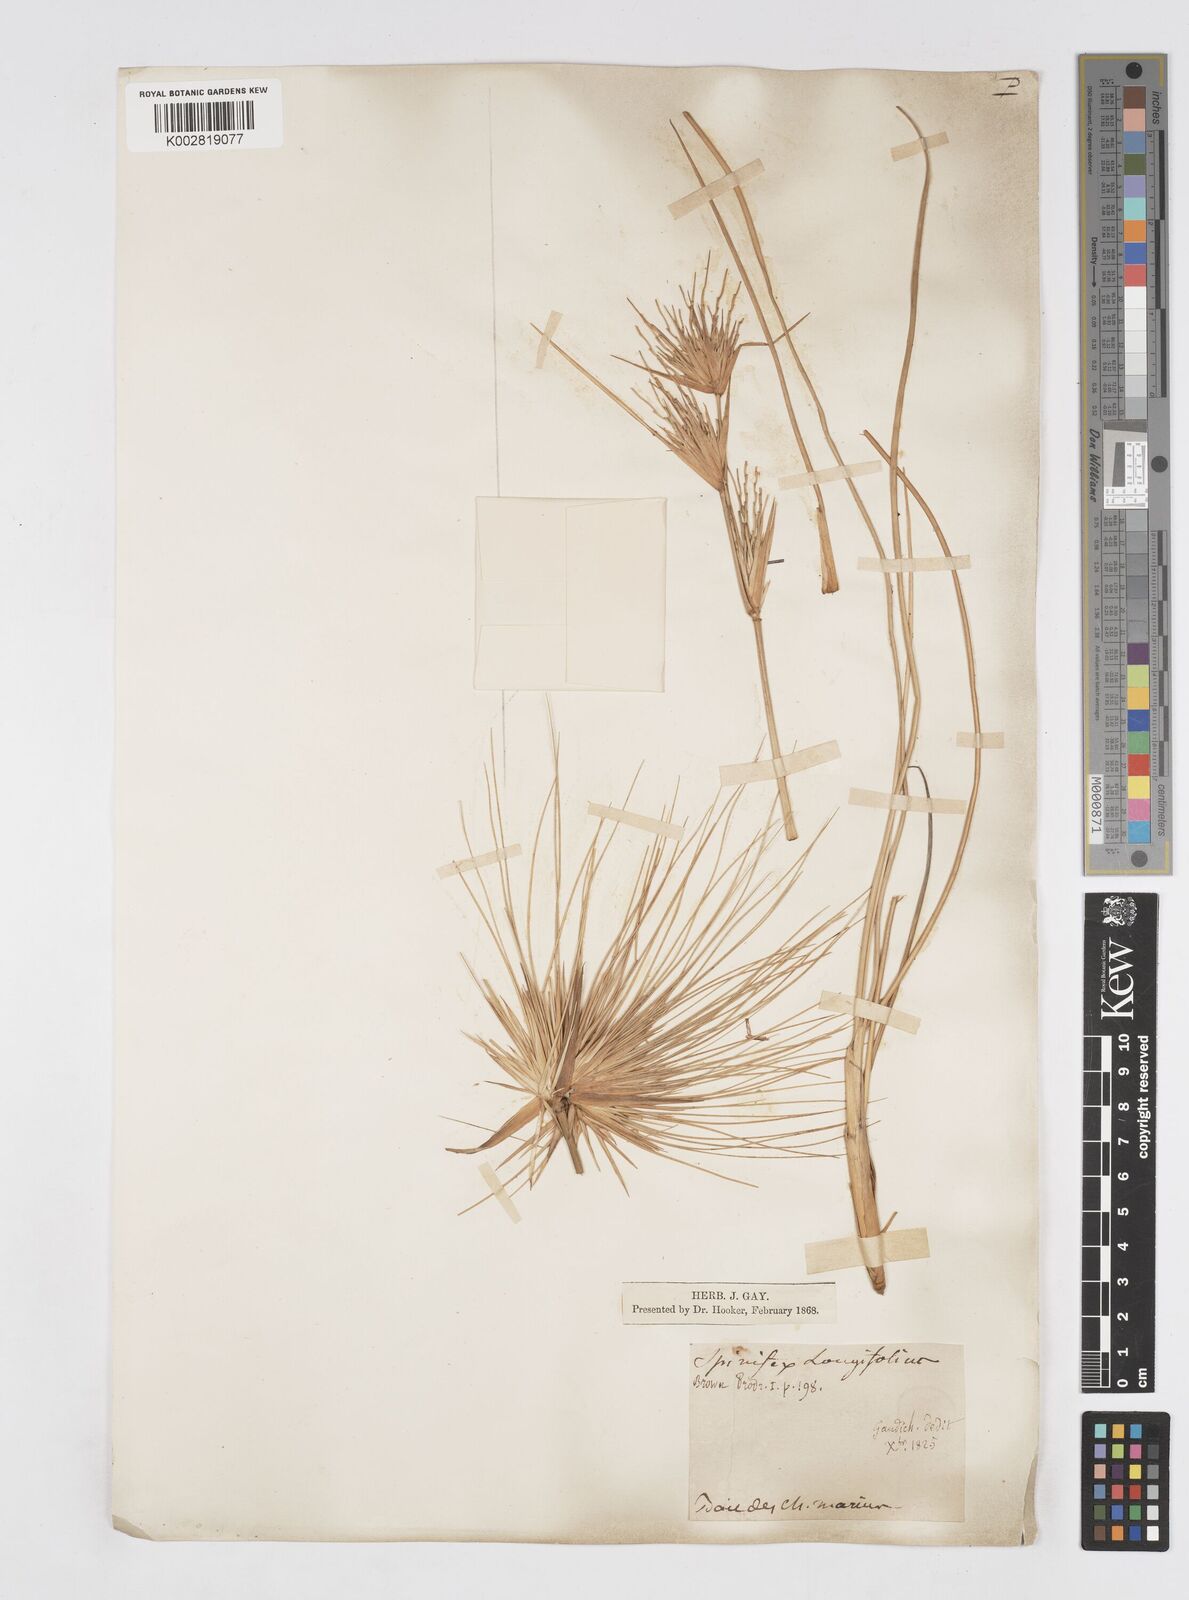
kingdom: Plantae
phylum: Tracheophyta
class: Liliopsida
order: Poales
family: Poaceae
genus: Spinifex
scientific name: Spinifex longifolius
